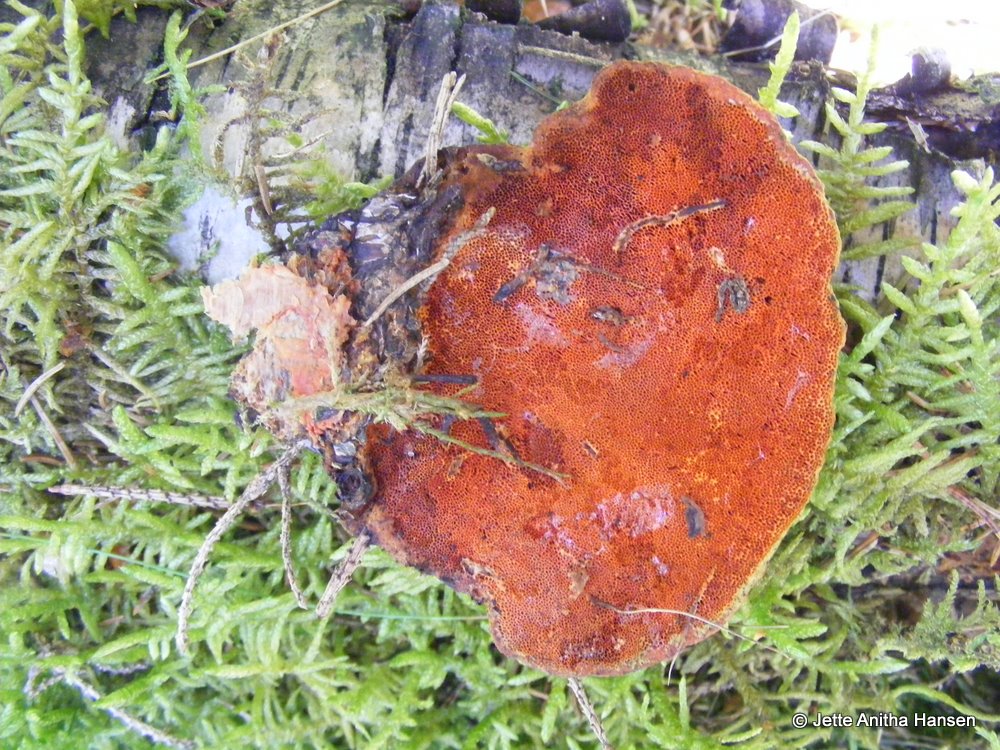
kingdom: Fungi
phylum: Basidiomycota
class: Agaricomycetes
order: Polyporales
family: Polyporaceae
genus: Trametes
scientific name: Trametes cinnabarina
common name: cinnoberporesvamp
